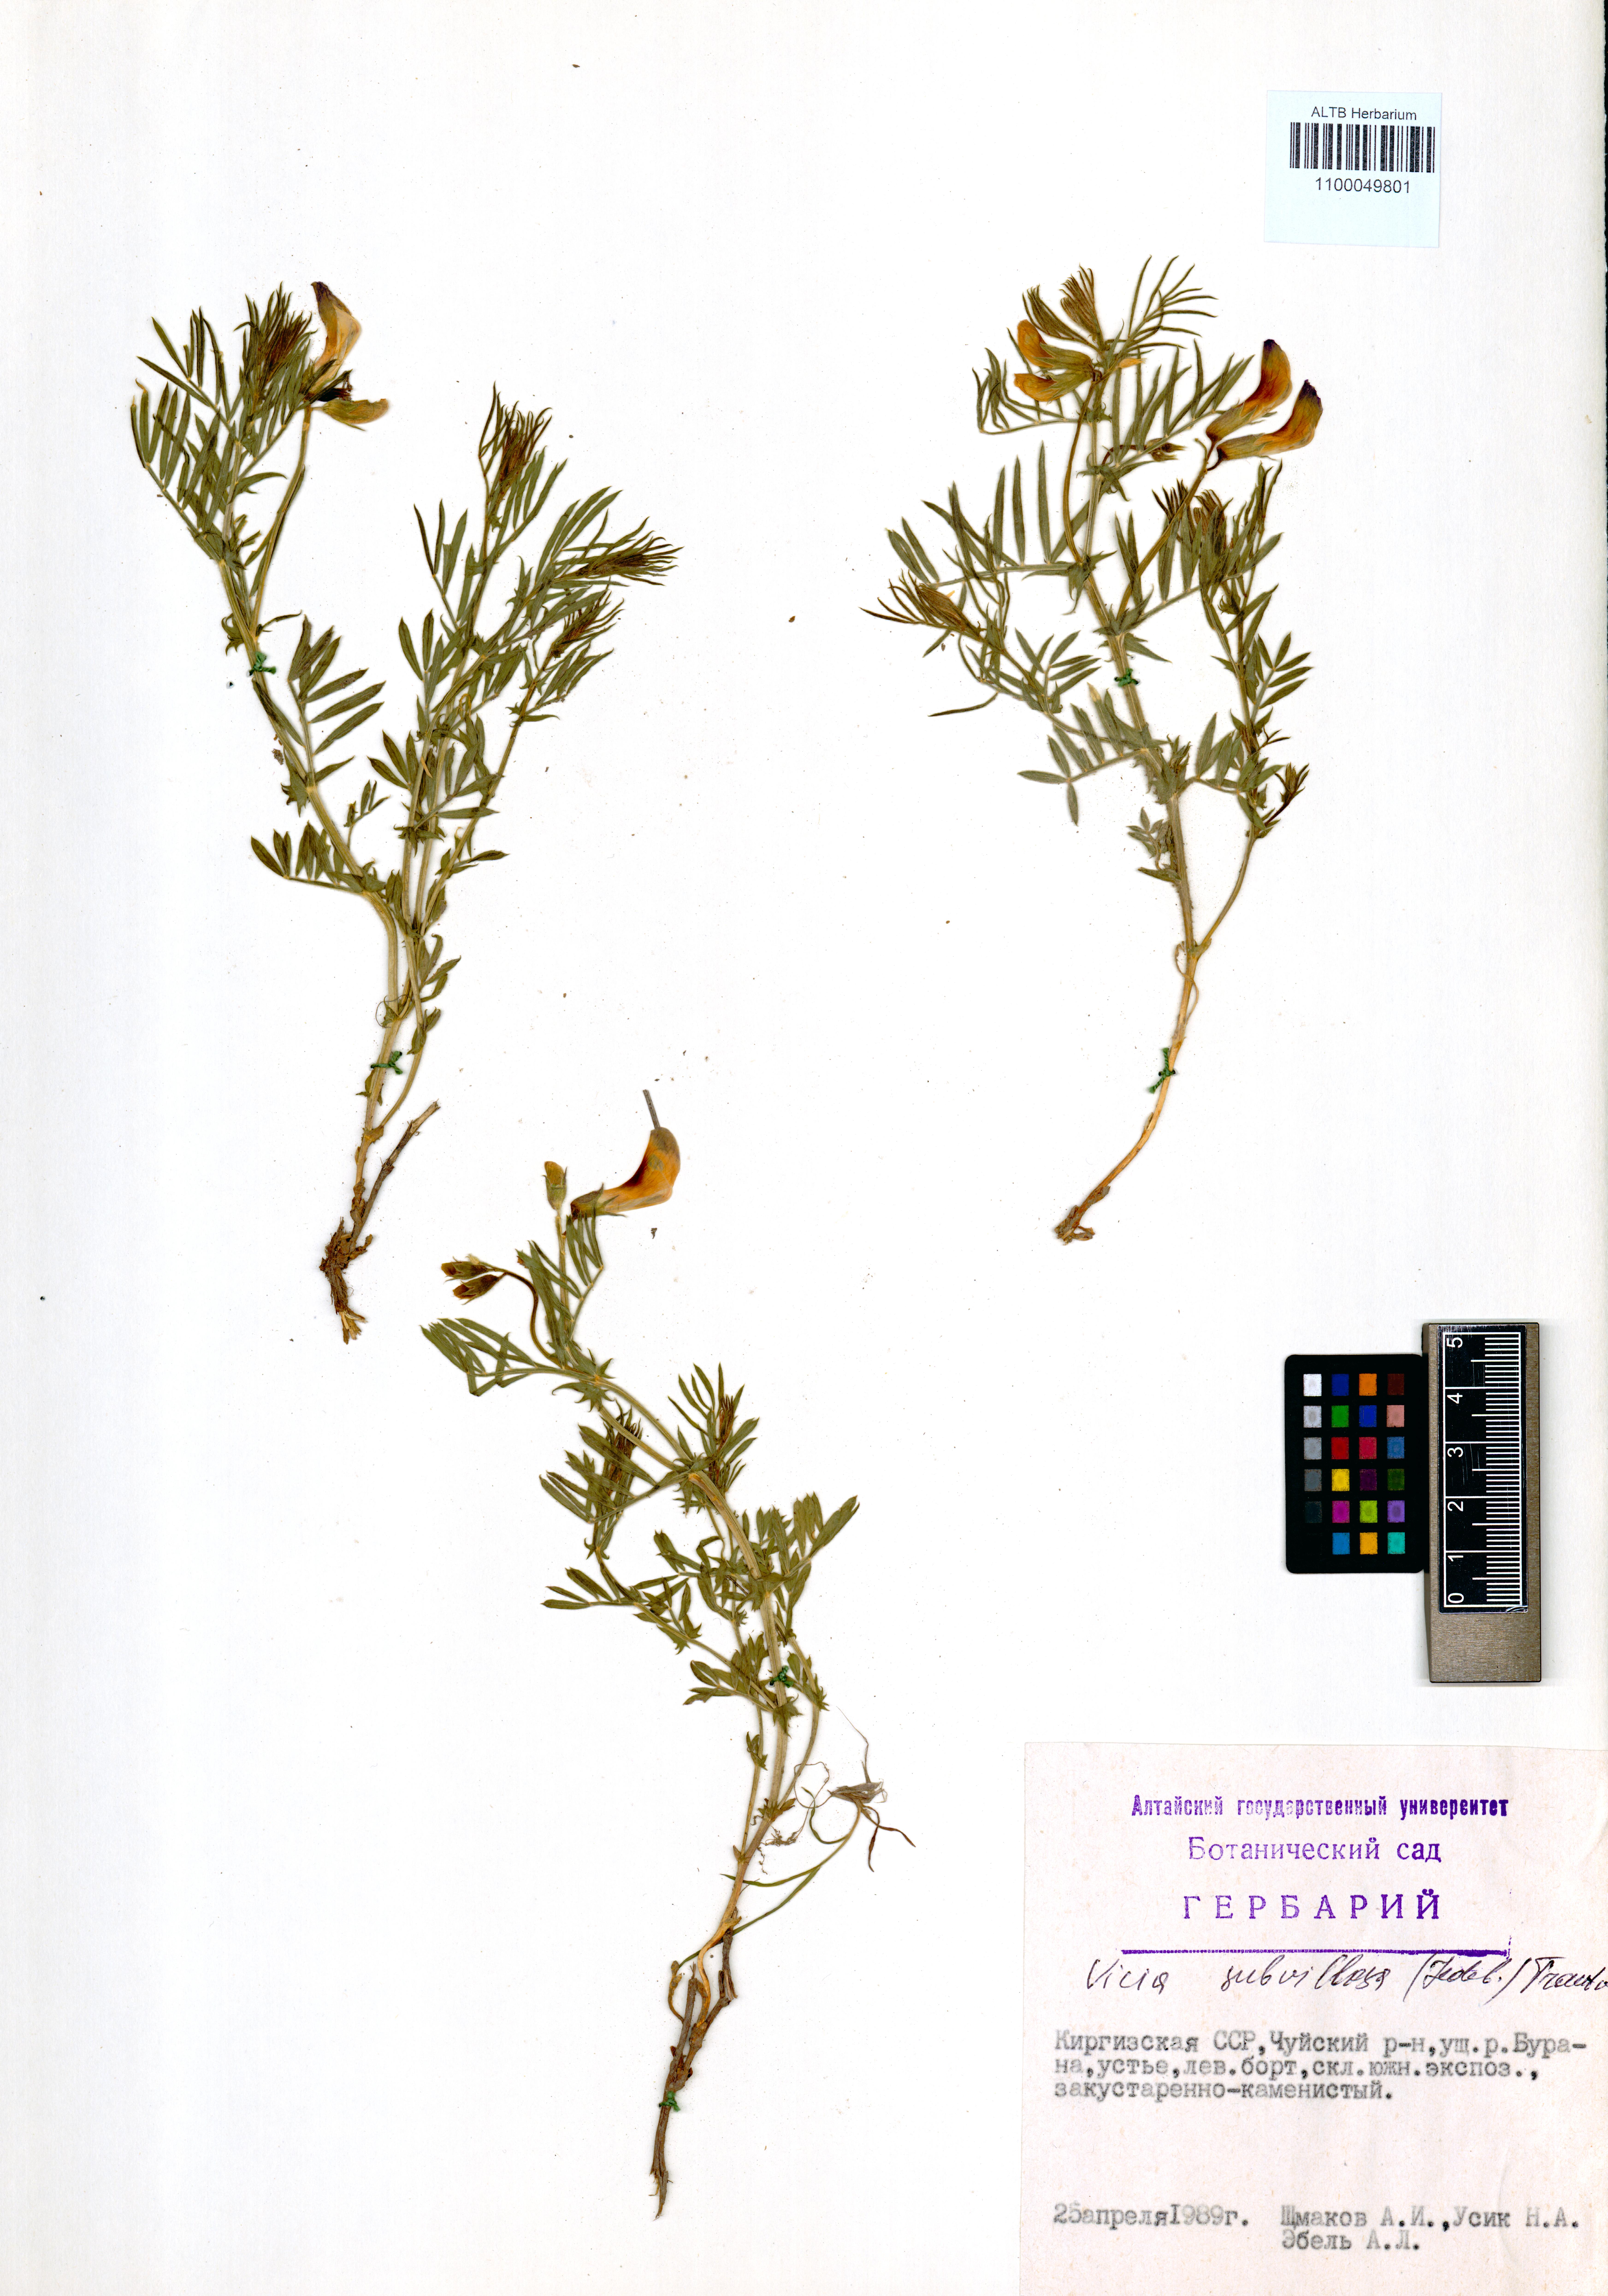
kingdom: Plantae
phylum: Tracheophyta
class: Magnoliopsida
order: Fabales
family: Fabaceae
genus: Vicia
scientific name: Vicia subvillosa
